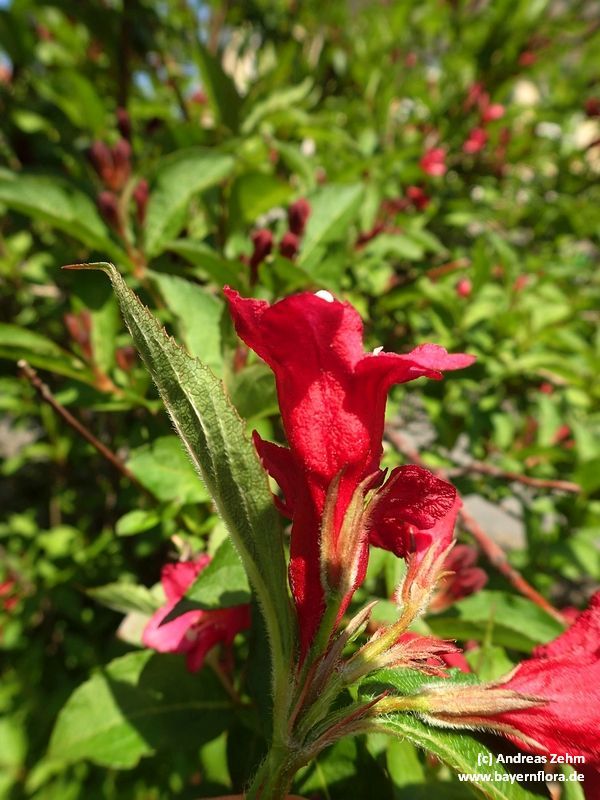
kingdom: Plantae
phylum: Tracheophyta
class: Magnoliopsida
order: Dipsacales
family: Caprifoliaceae
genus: Weigela
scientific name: Weigela florida
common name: Weigelia
